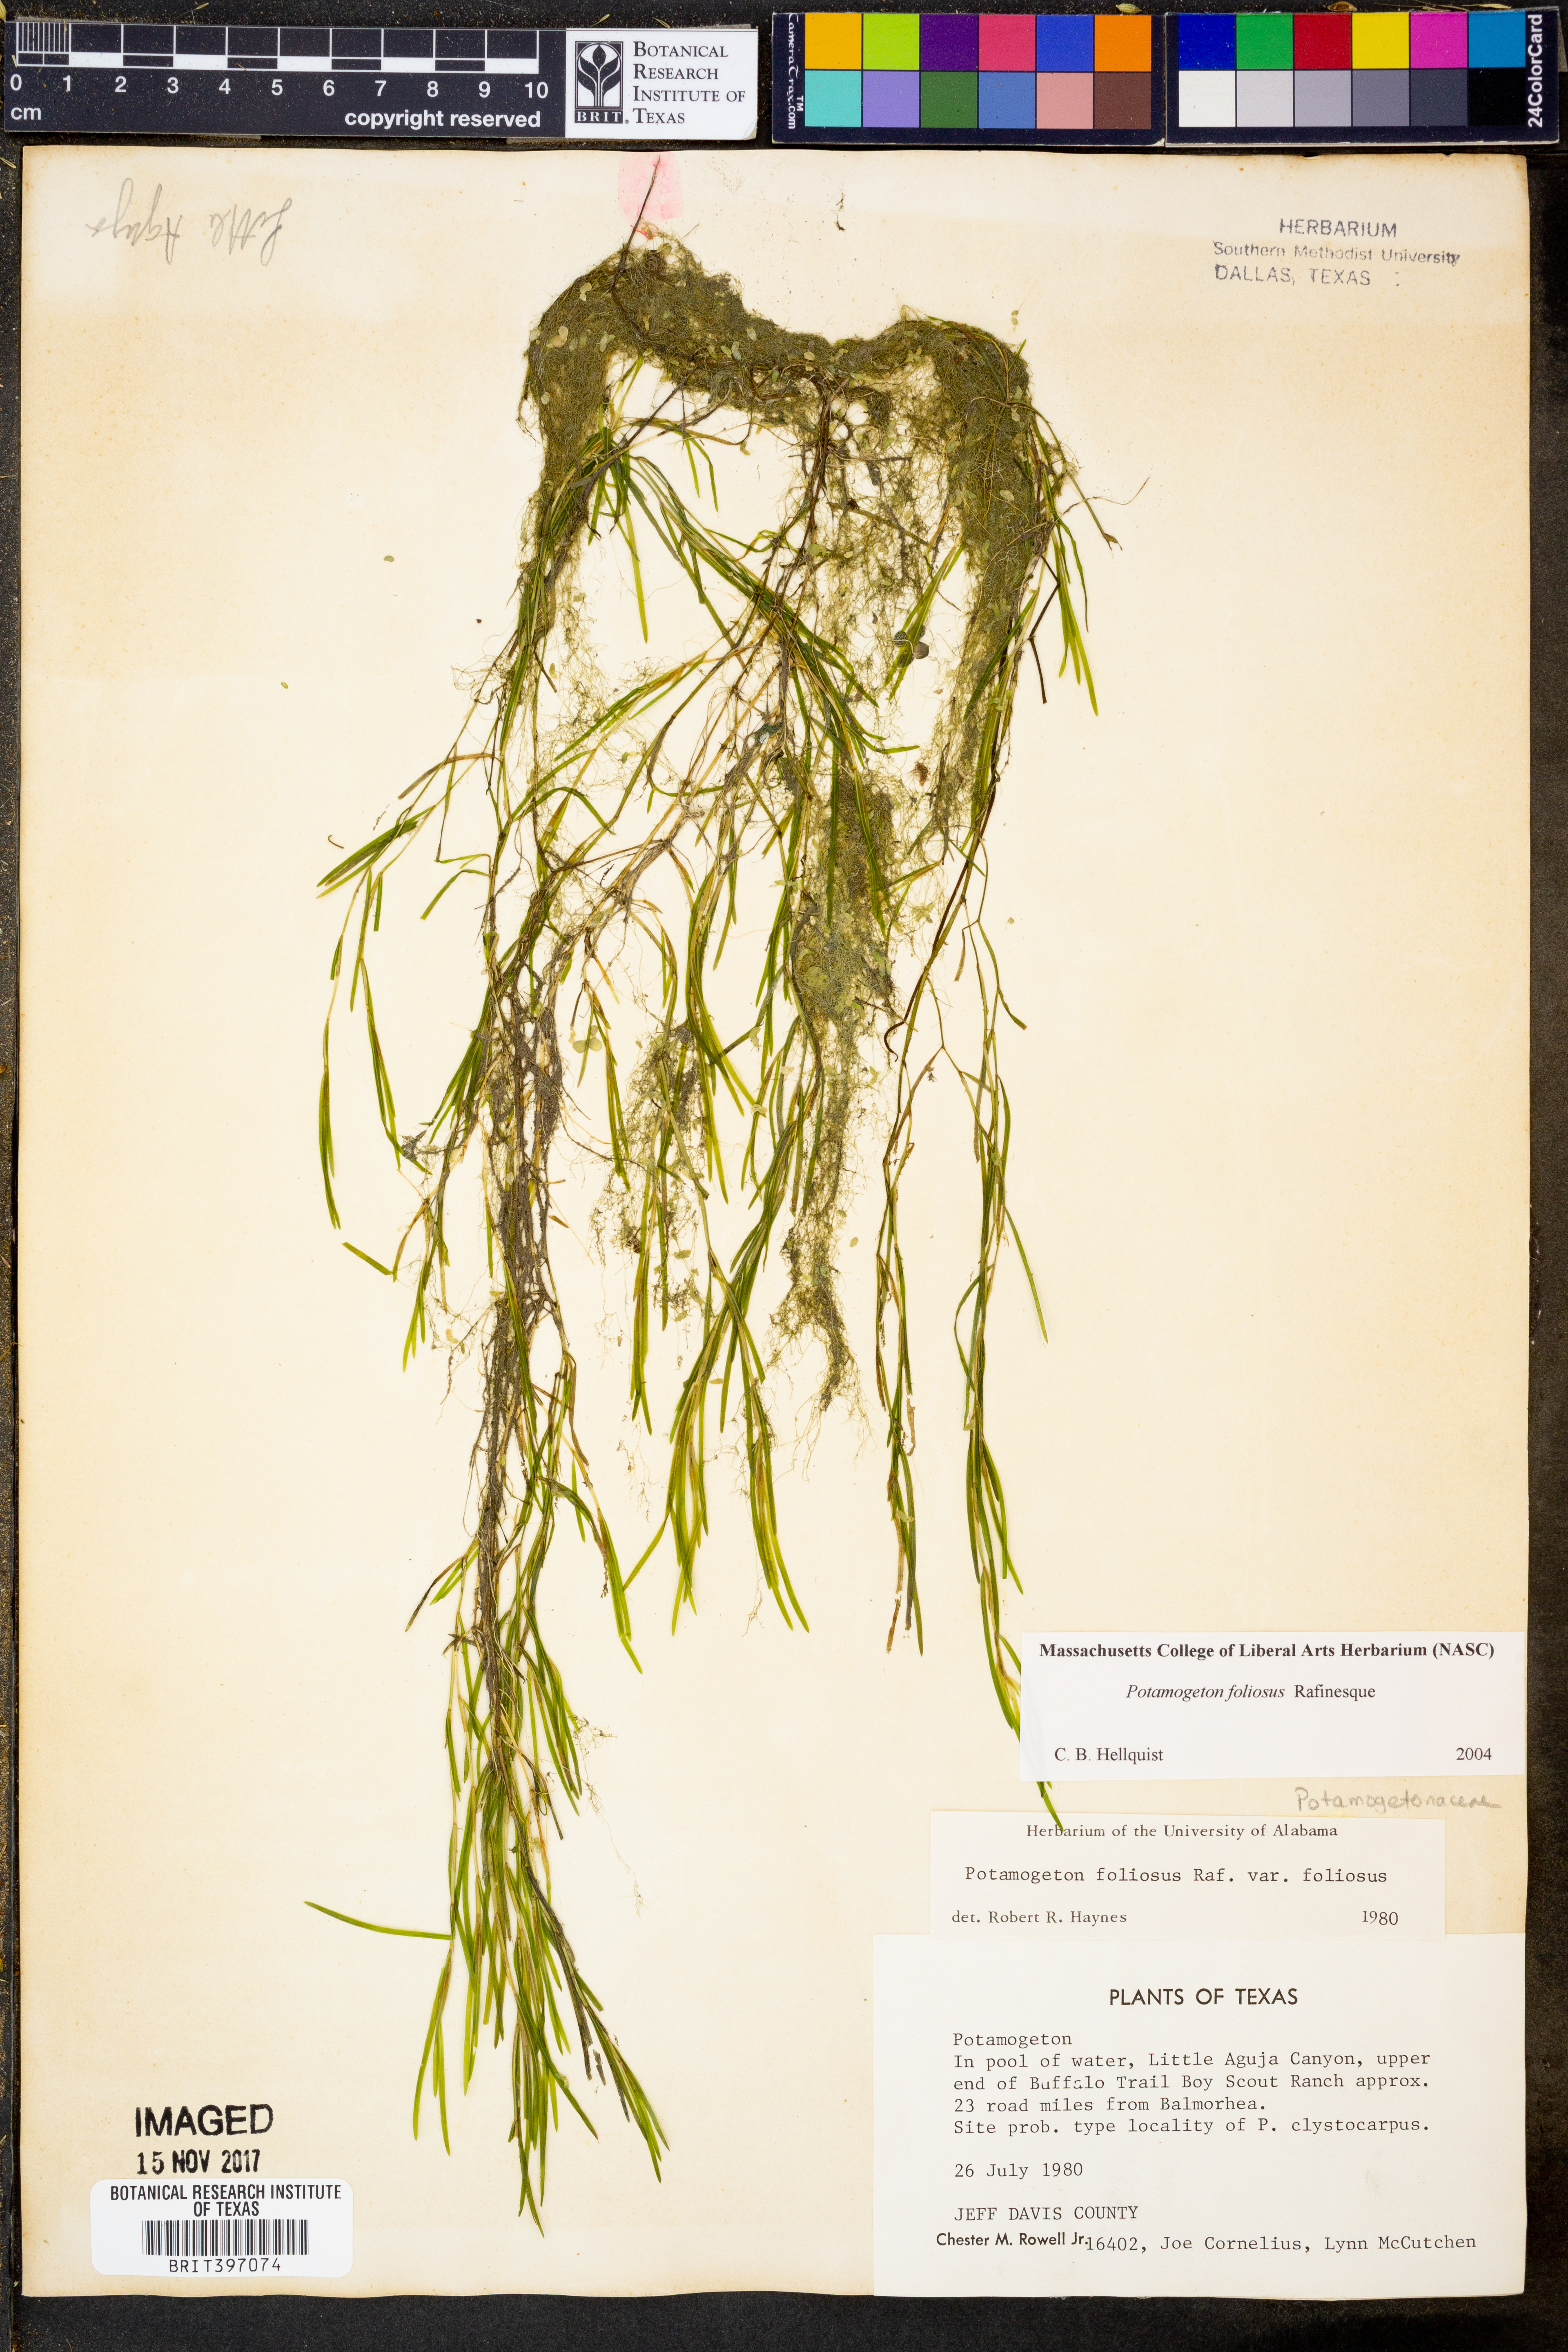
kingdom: Plantae
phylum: Tracheophyta
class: Liliopsida
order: Alismatales
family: Potamogetonaceae
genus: Potamogeton
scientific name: Potamogeton foliosus
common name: Leafy pondweed
